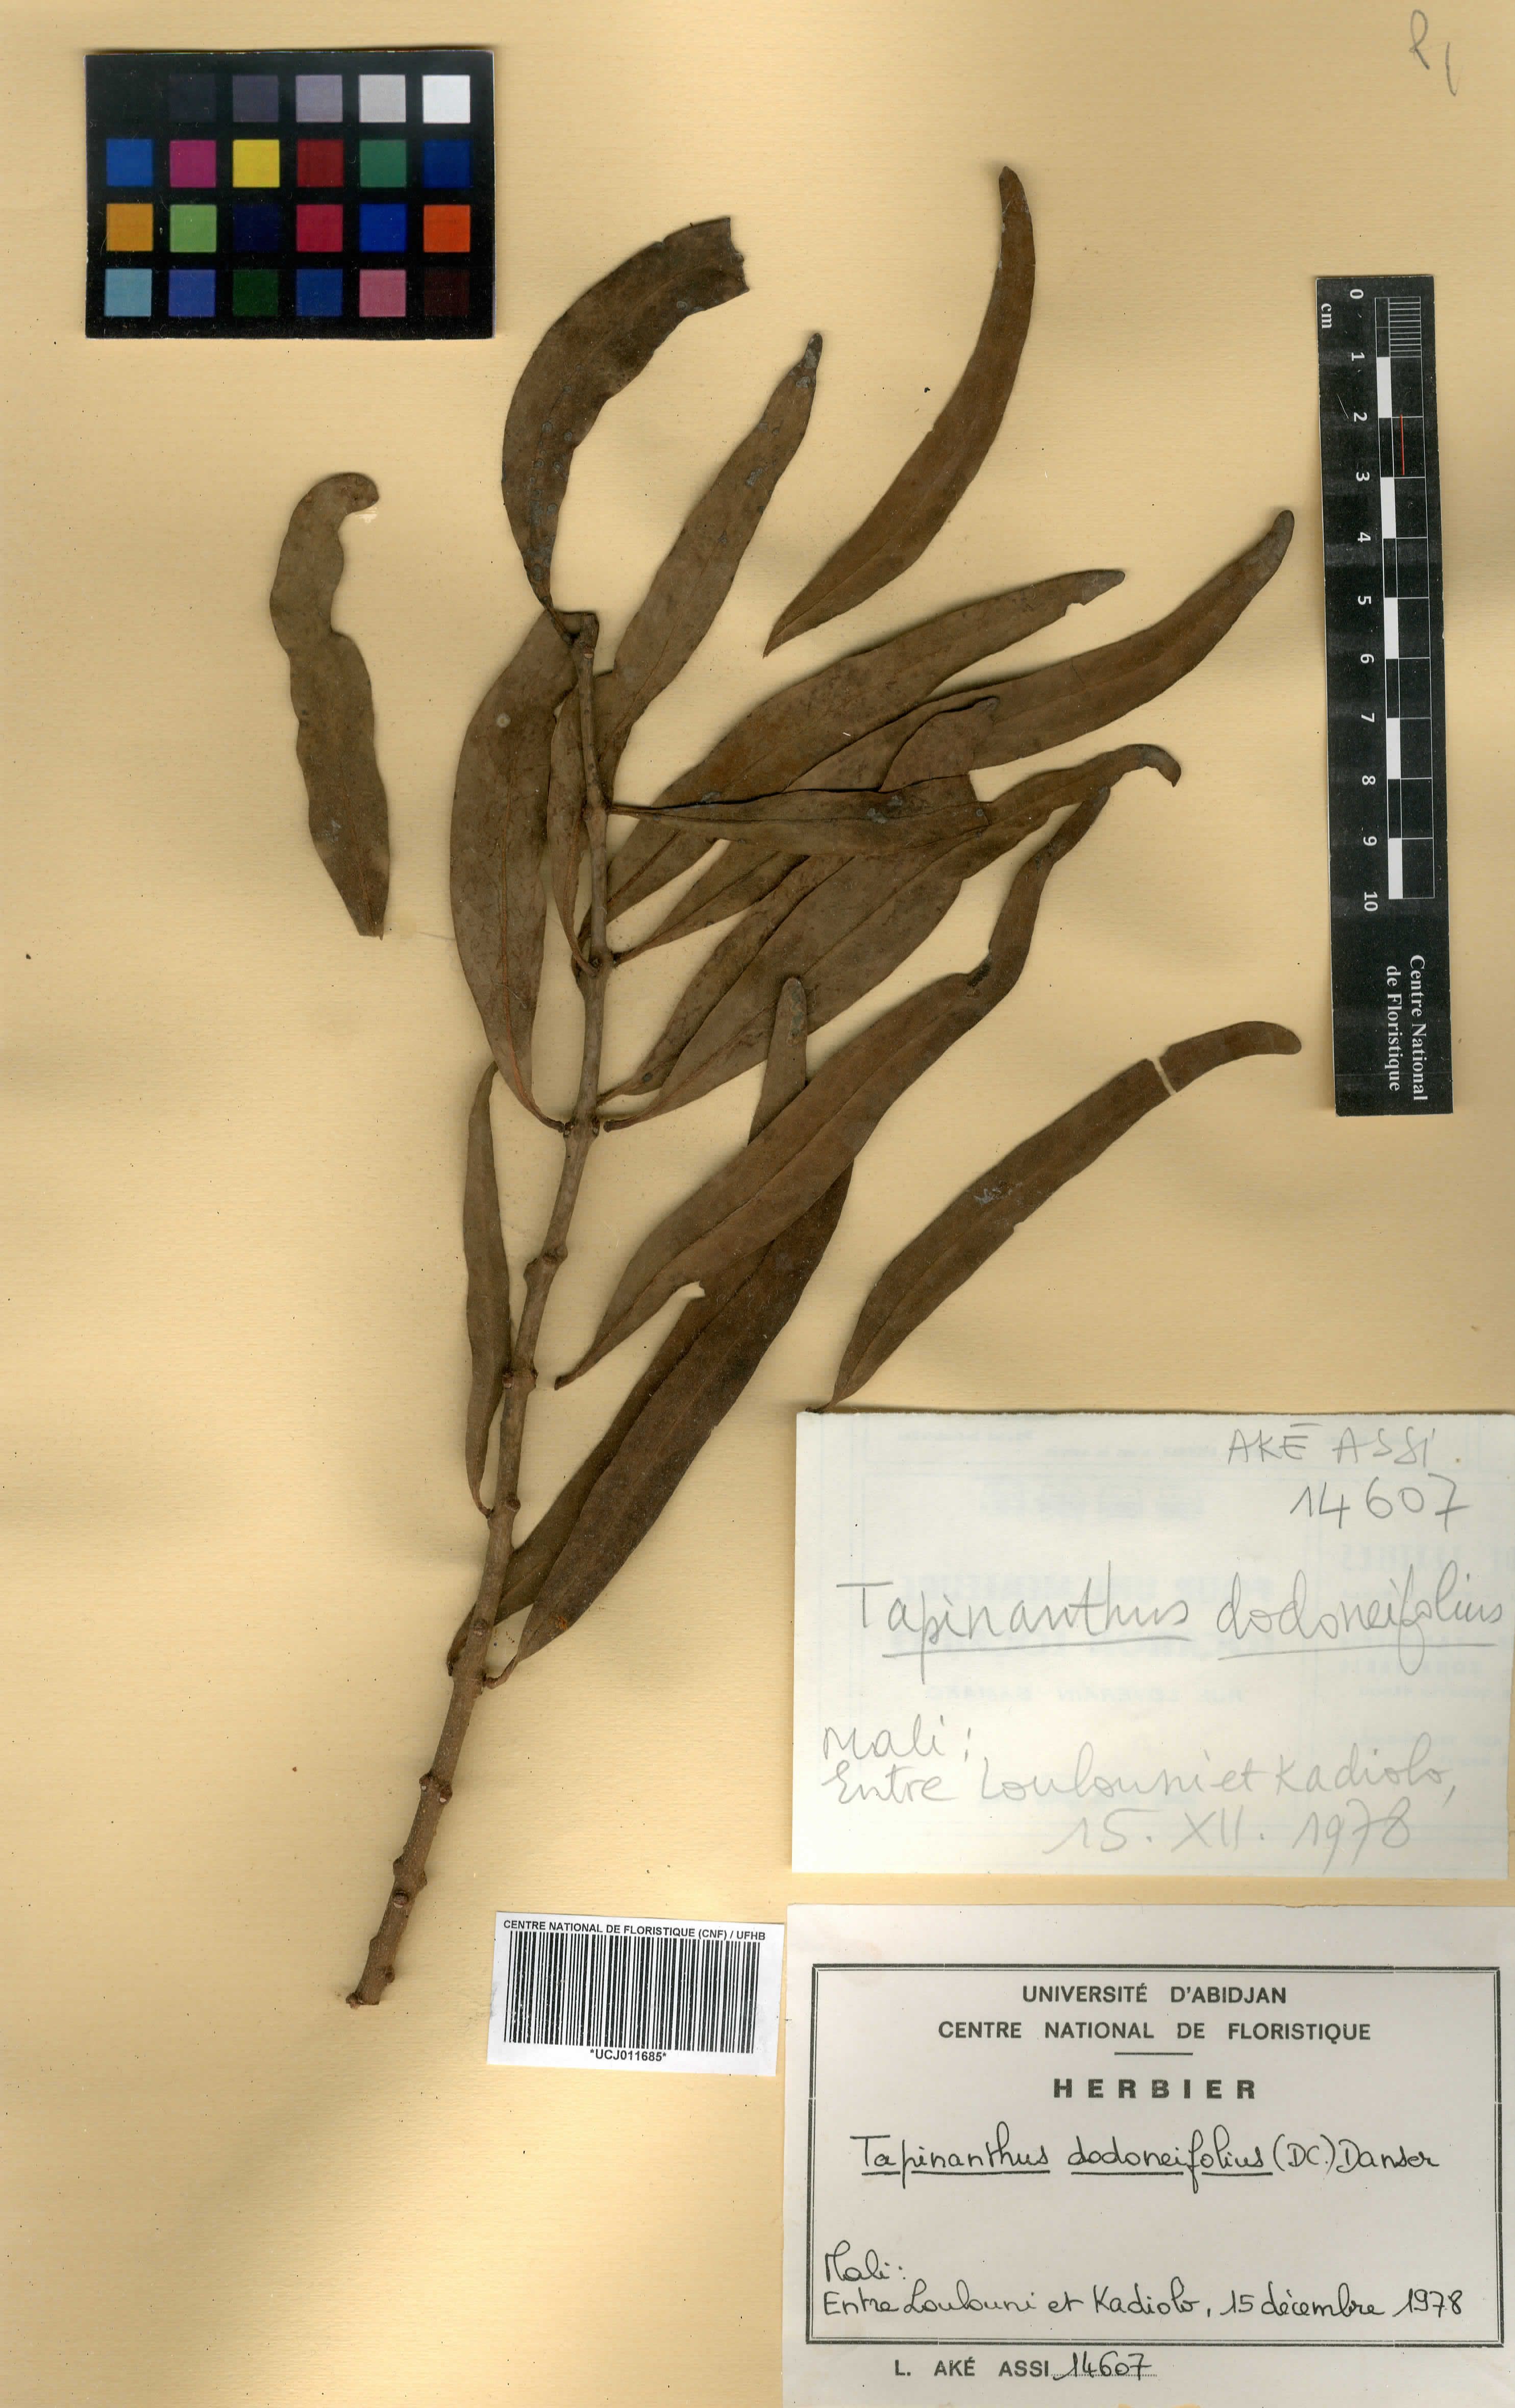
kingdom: Plantae
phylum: Tracheophyta
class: Magnoliopsida
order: Santalales
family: Loranthaceae
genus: Agelanthus
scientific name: Agelanthus dodoneifolius
